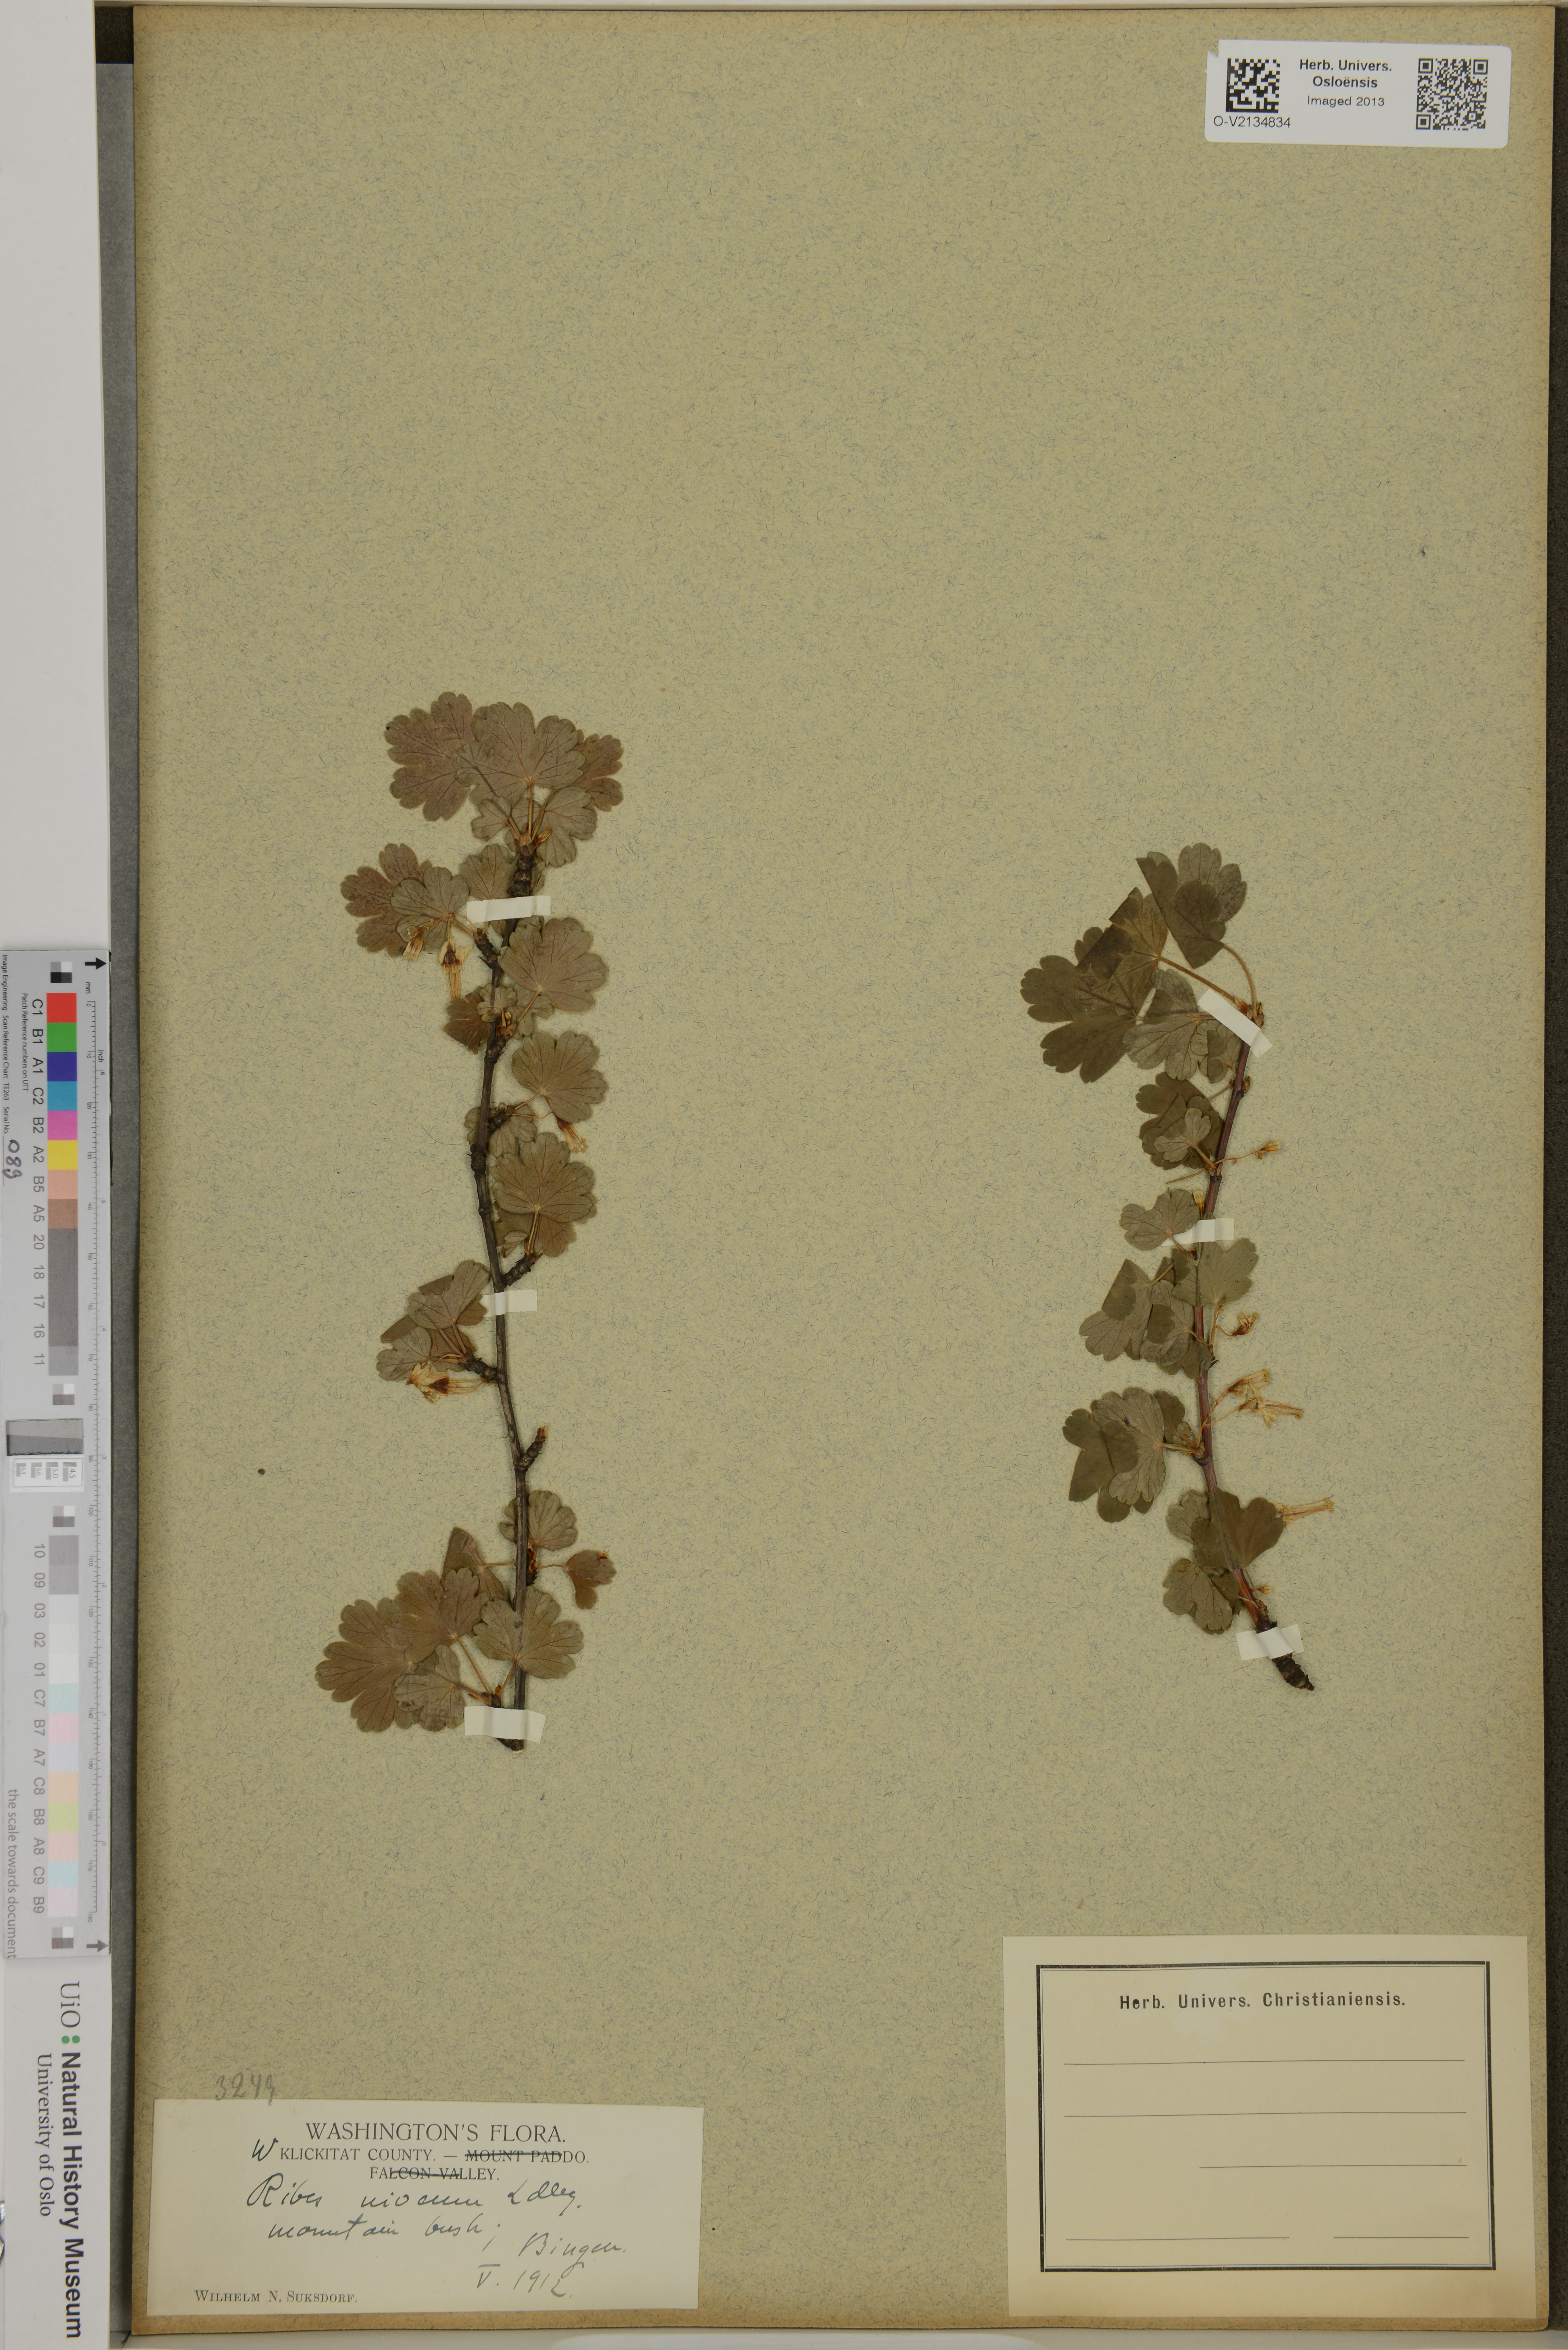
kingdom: Plantae
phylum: Tracheophyta
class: Magnoliopsida
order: Saxifragales
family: Grossulariaceae
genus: Ribes
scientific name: Ribes niveum
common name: Snake river gooseberry
